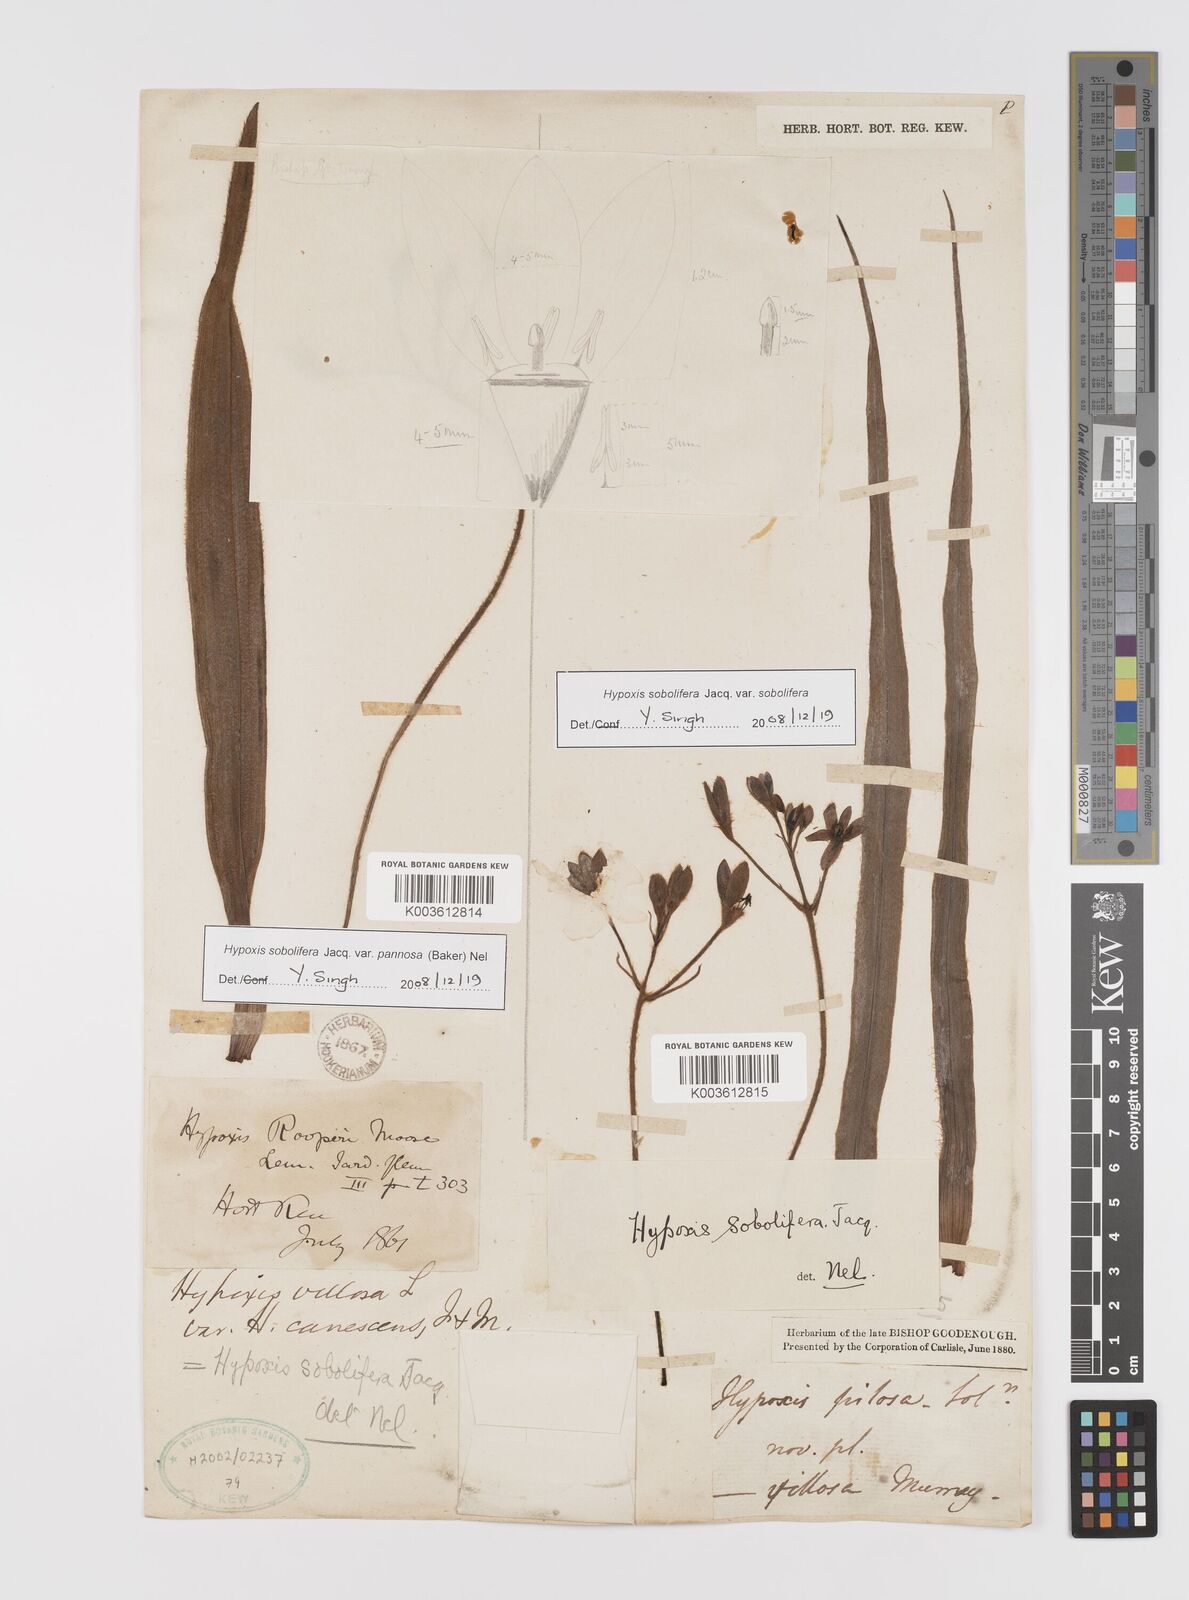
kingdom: Plantae
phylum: Tracheophyta
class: Liliopsida
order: Asparagales
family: Hypoxidaceae
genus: Hypoxis
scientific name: Hypoxis sobolifera
